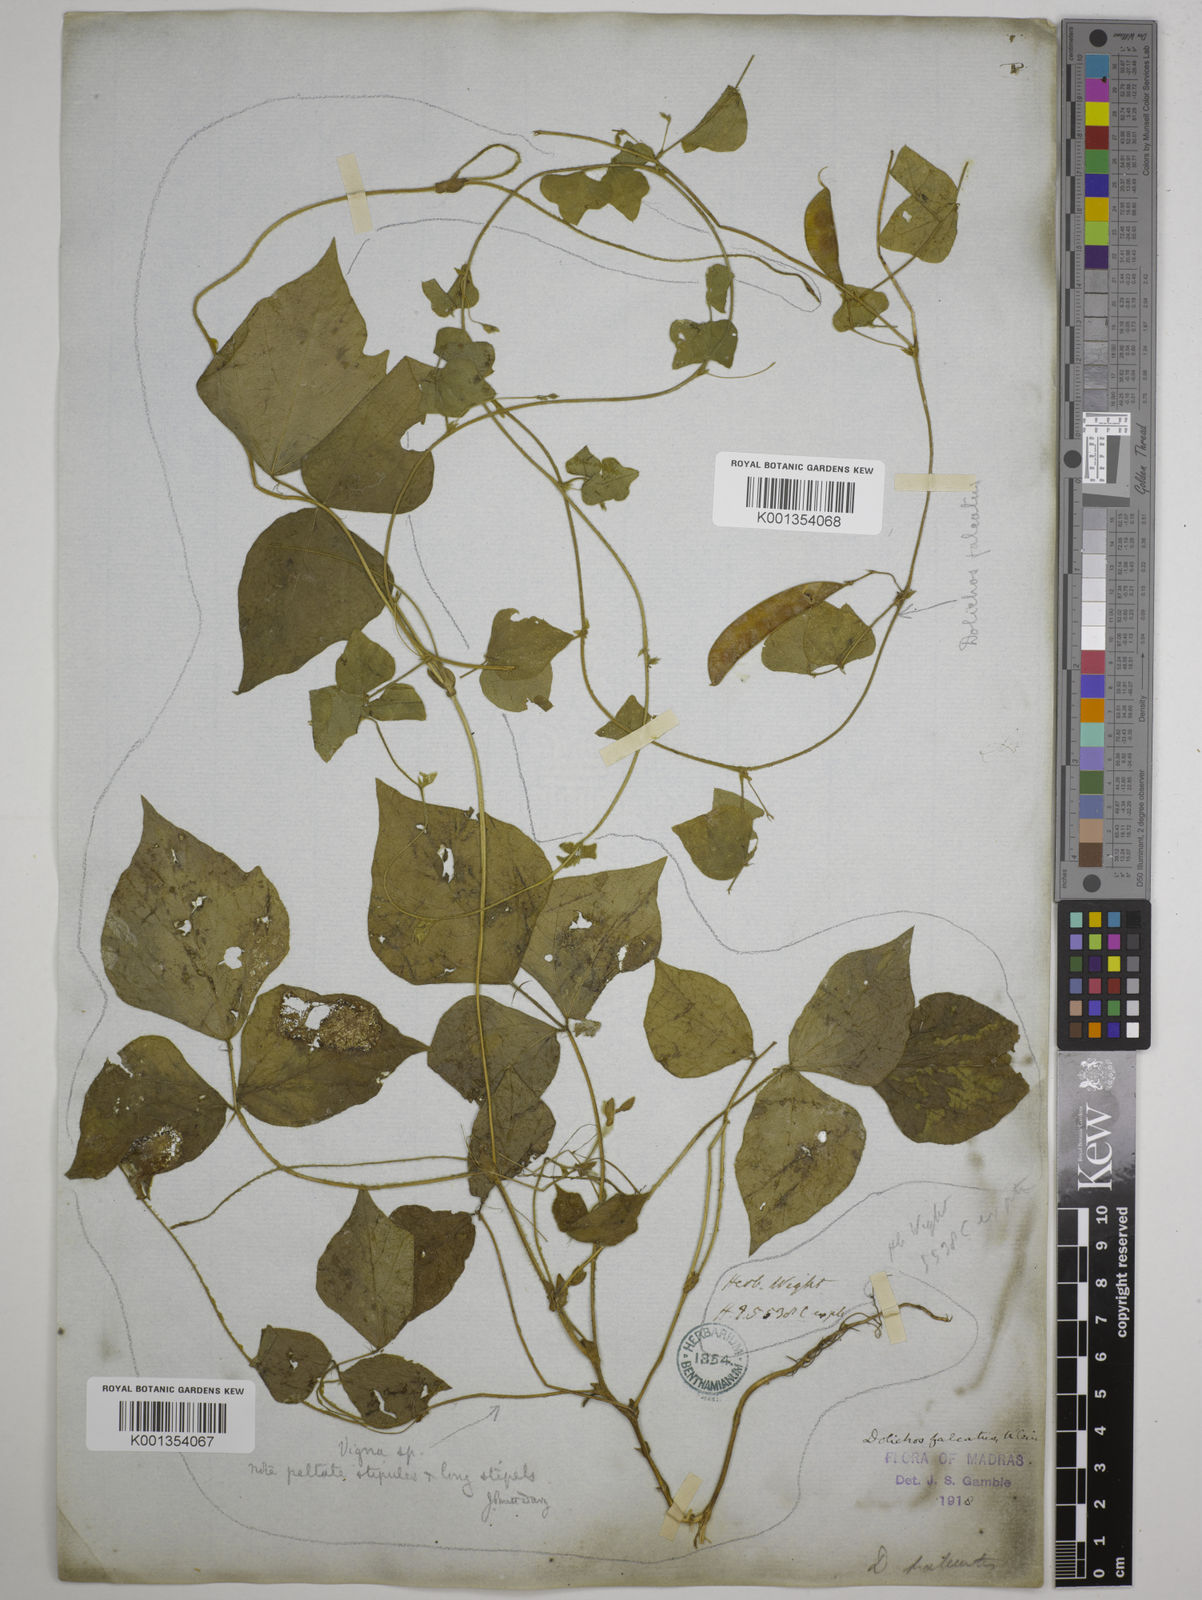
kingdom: Plantae
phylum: Tracheophyta
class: Magnoliopsida
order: Fabales
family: Fabaceae
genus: Dolichos
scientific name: Dolichos
